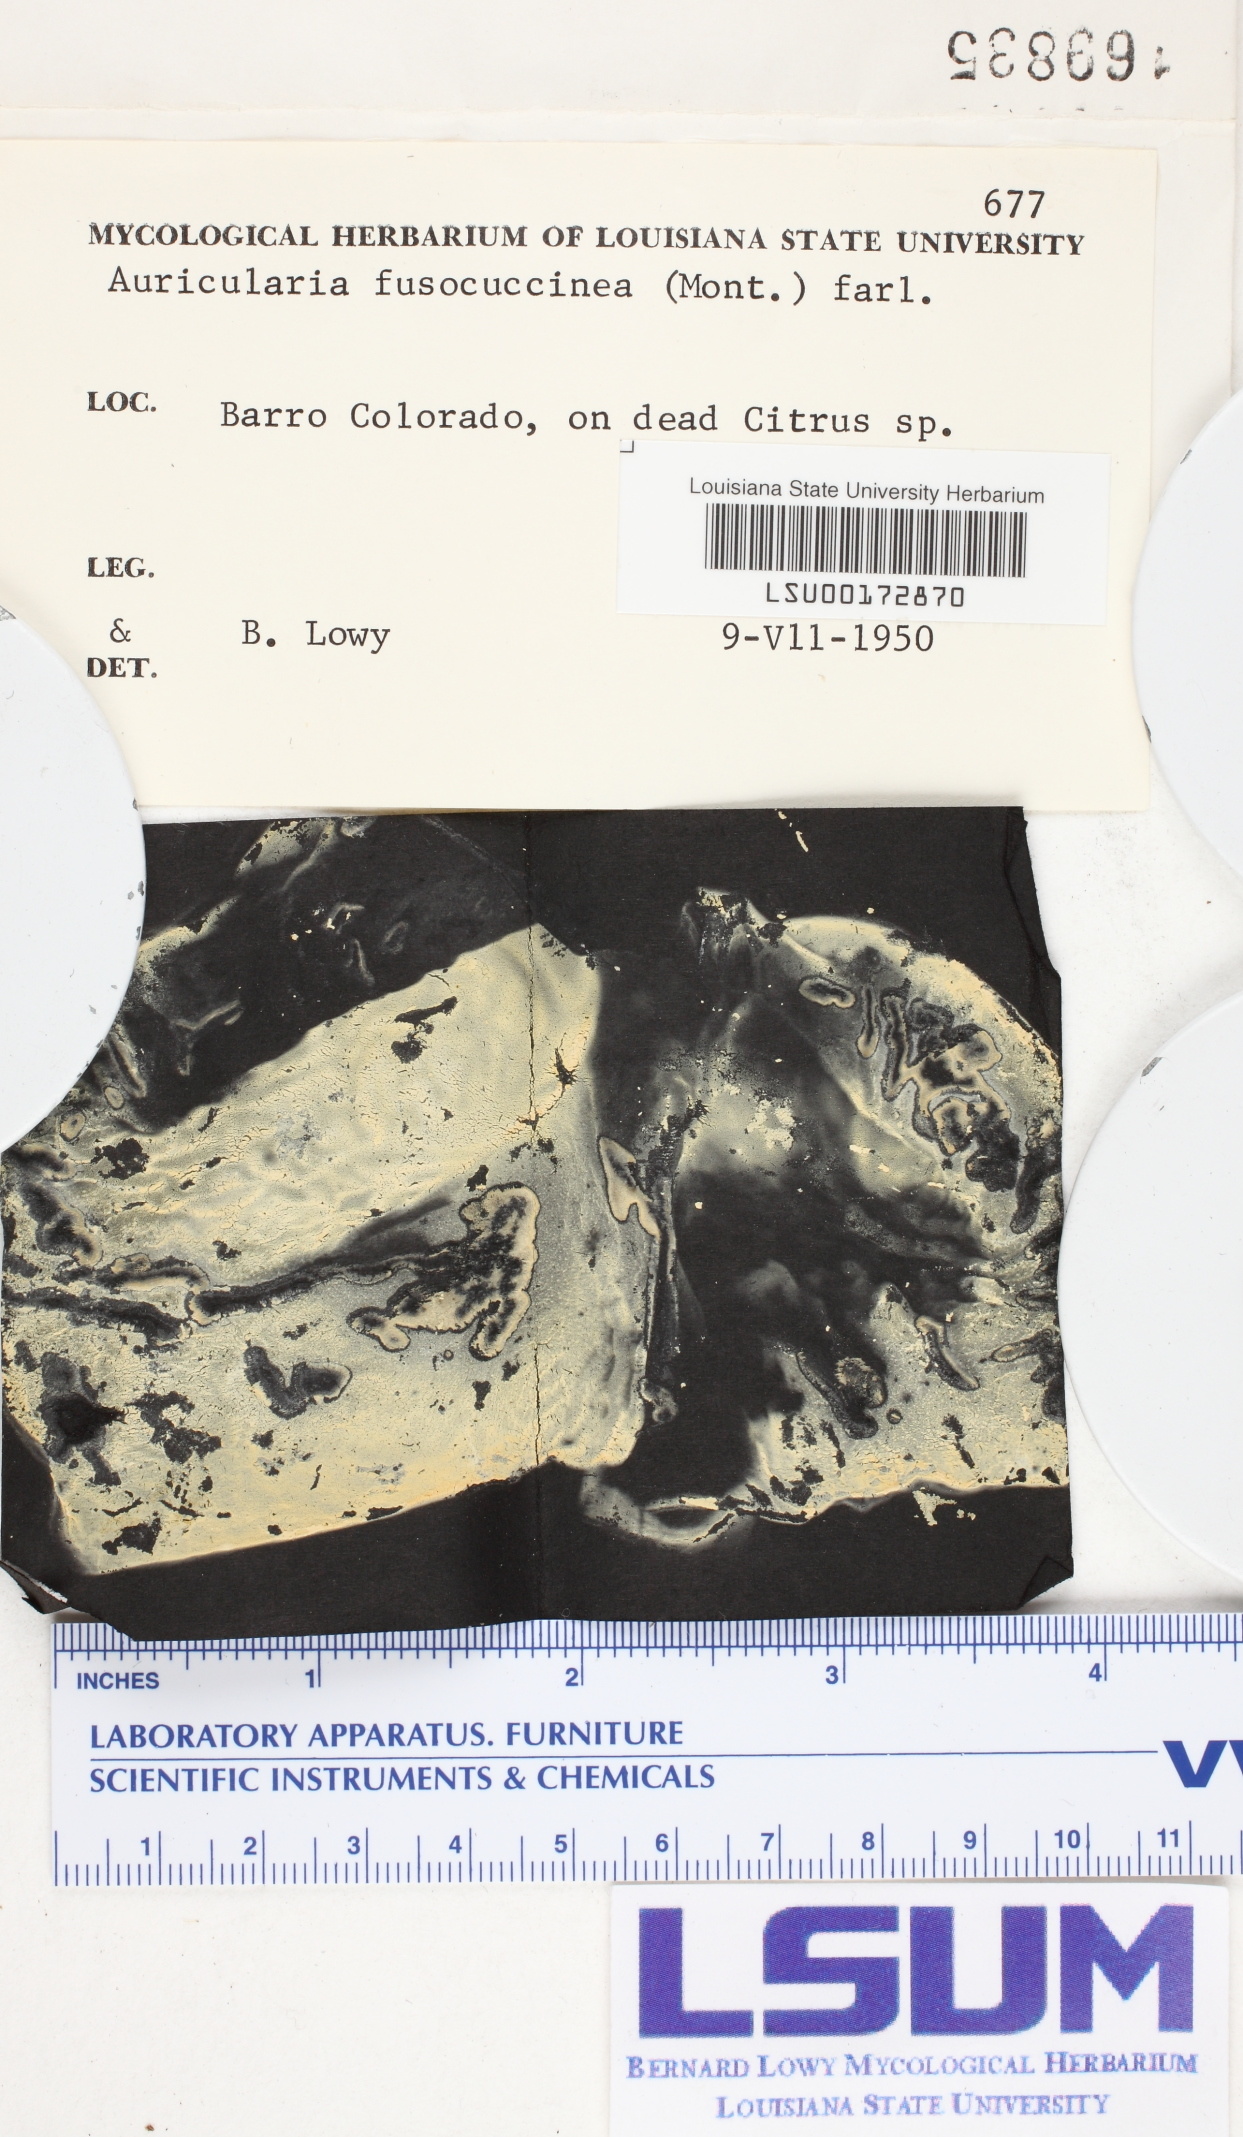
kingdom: Fungi
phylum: Basidiomycota
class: Agaricomycetes
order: Auriculariales
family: Auriculariaceae
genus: Auricularia
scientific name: Auricularia fuscosuccinea
